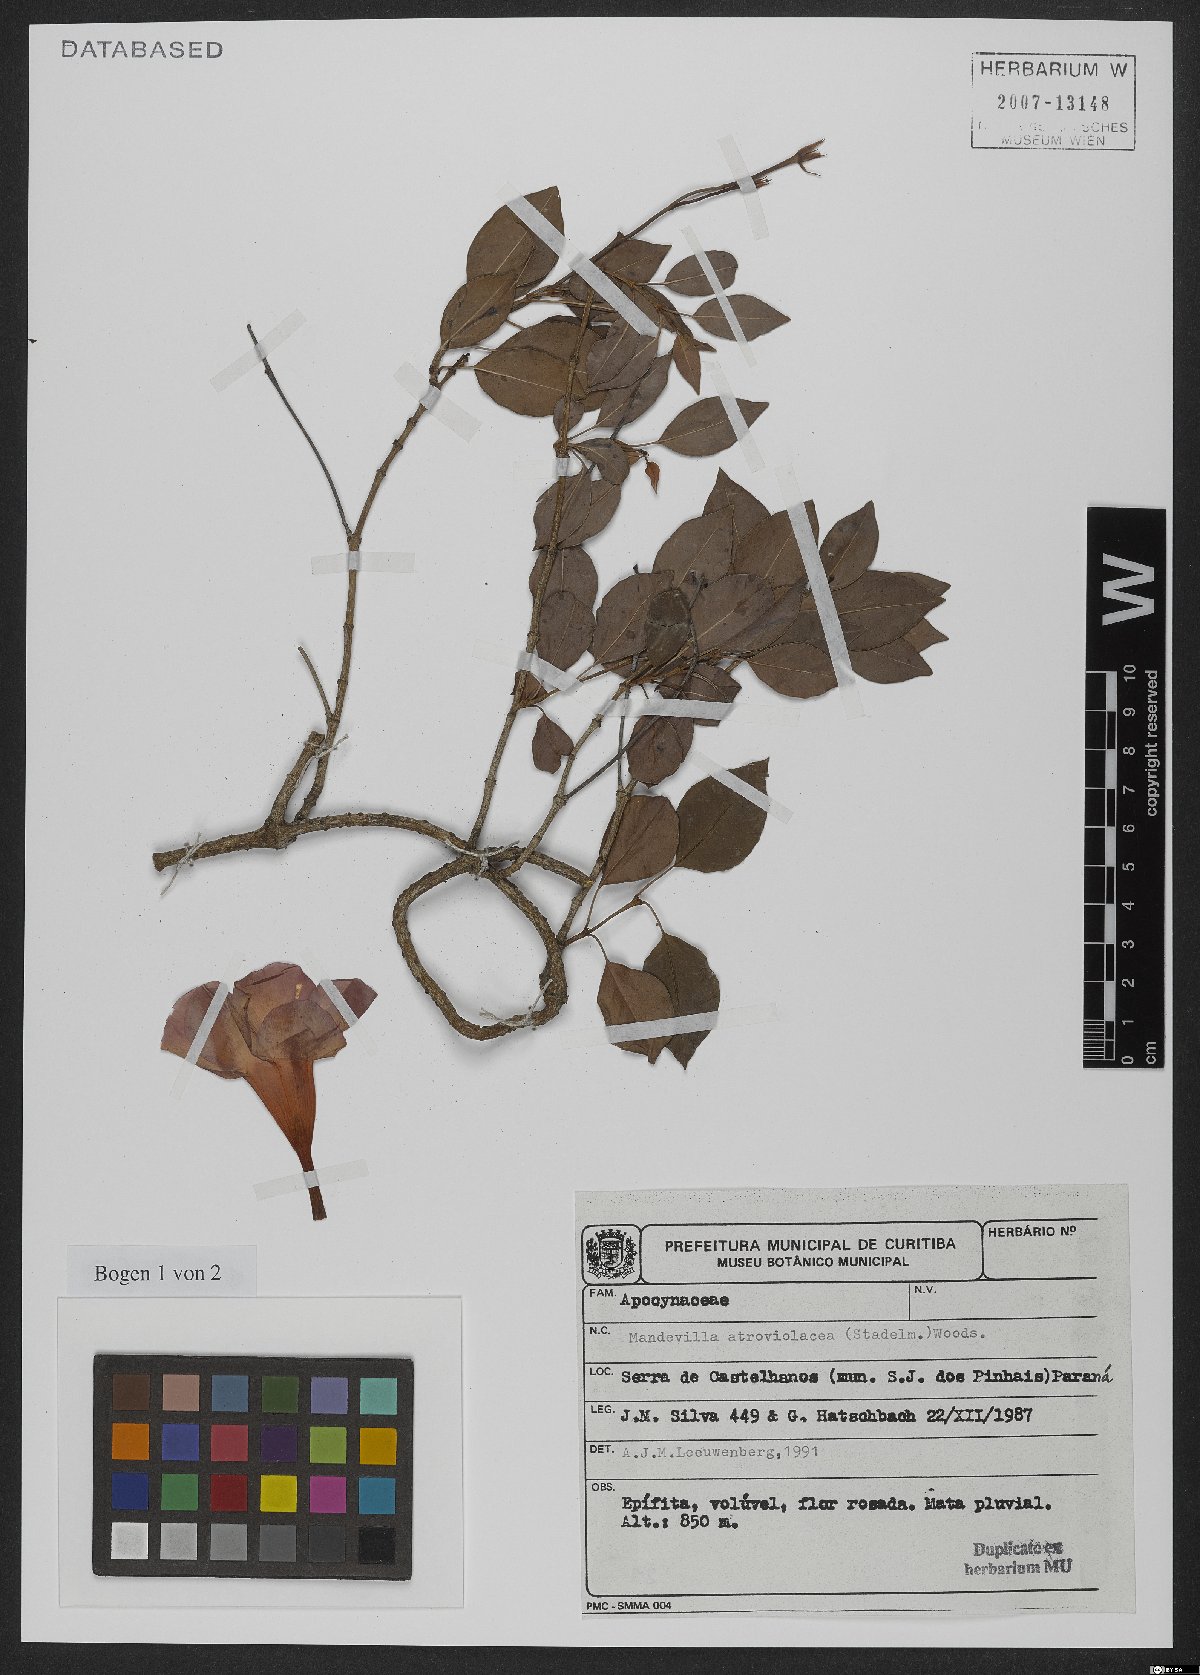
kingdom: Plantae
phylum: Tracheophyta
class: Magnoliopsida
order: Gentianales
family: Apocynaceae
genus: Mandevilla
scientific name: Mandevilla atroviolacea
